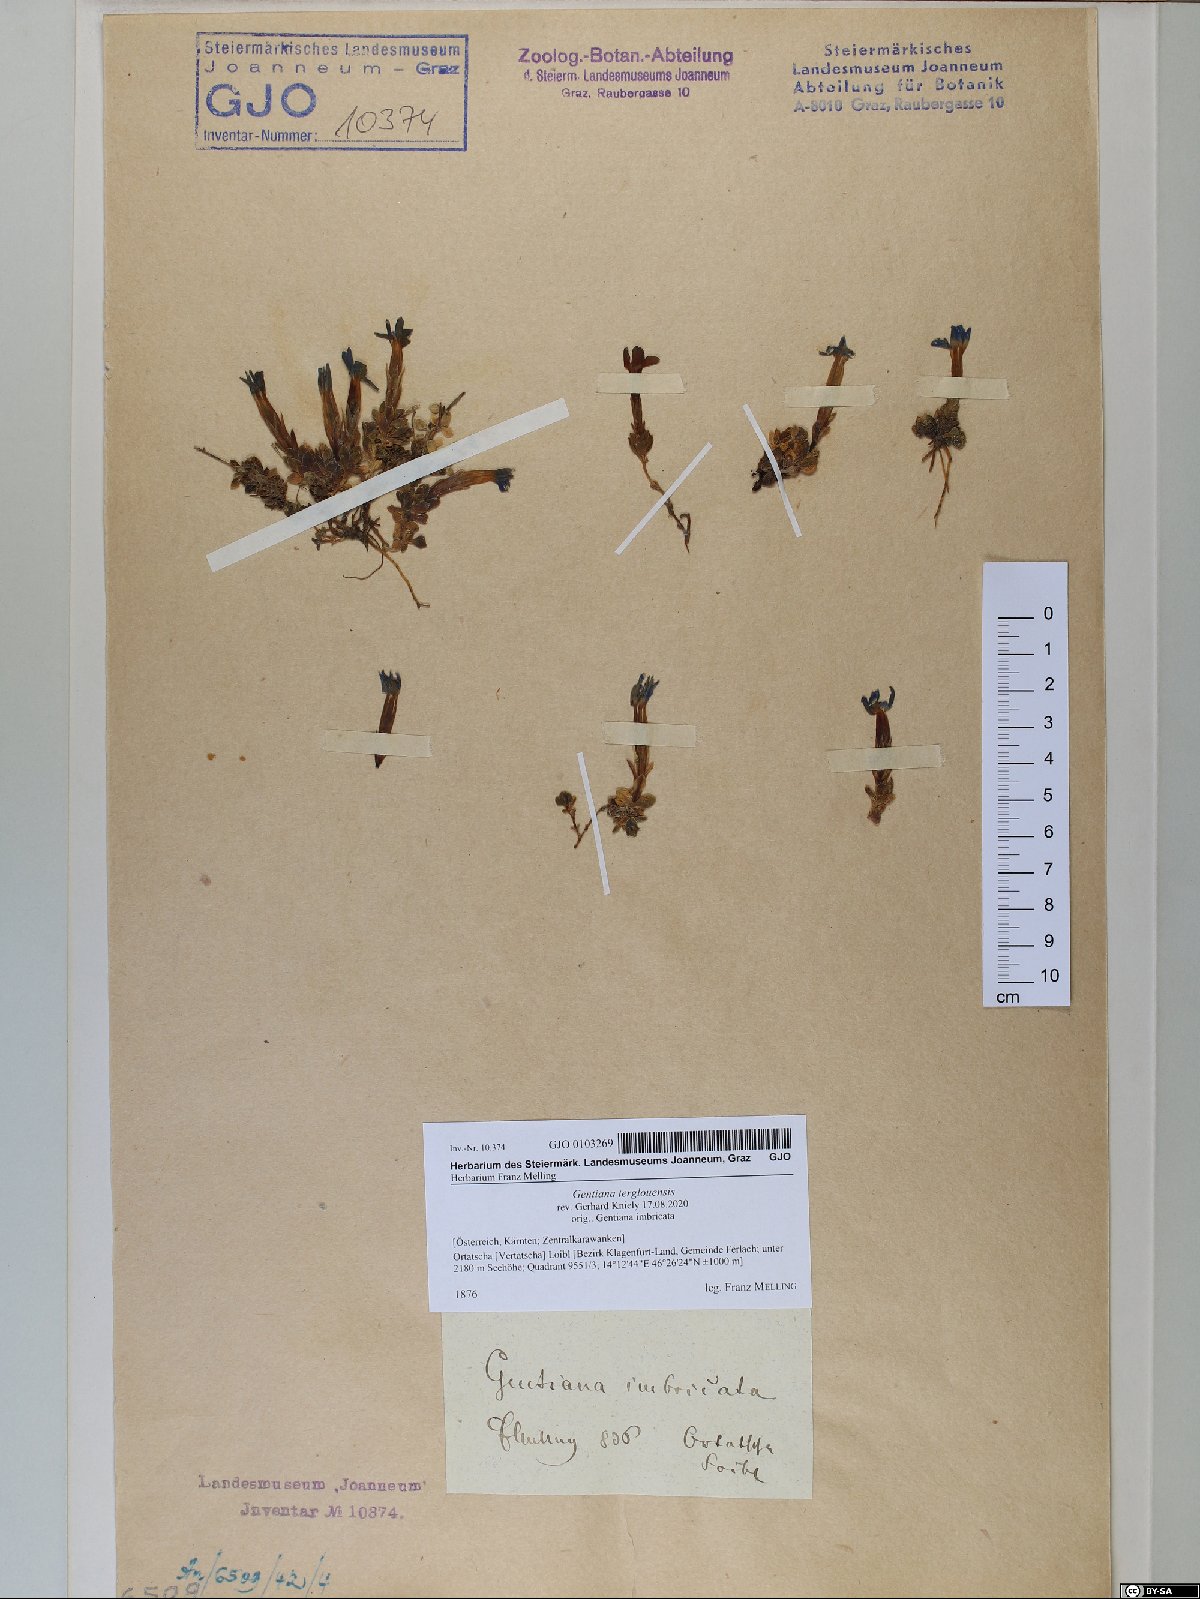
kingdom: Plantae
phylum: Tracheophyta
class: Magnoliopsida
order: Gentianales
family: Gentianaceae
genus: Gentiana
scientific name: Gentiana terglouensis
